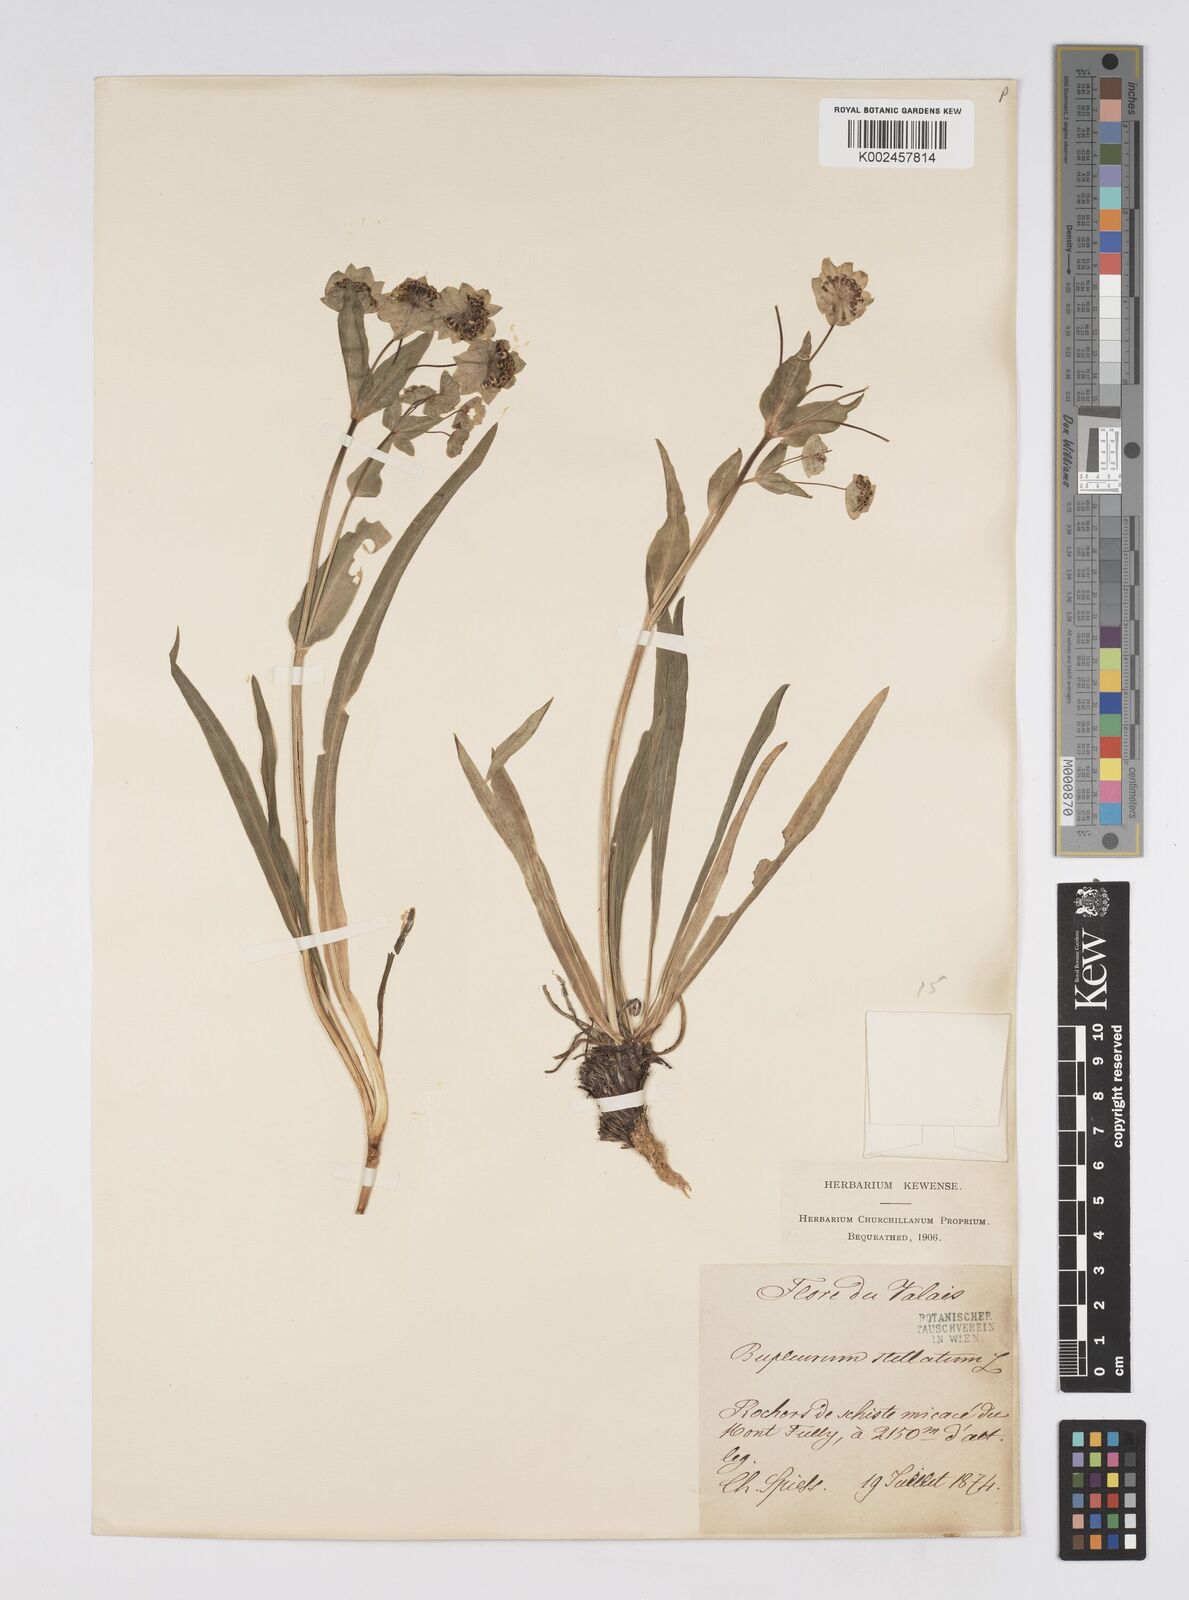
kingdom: Plantae
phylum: Tracheophyta
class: Magnoliopsida
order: Apiales
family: Apiaceae
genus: Bupleurum
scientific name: Bupleurum stellatum
